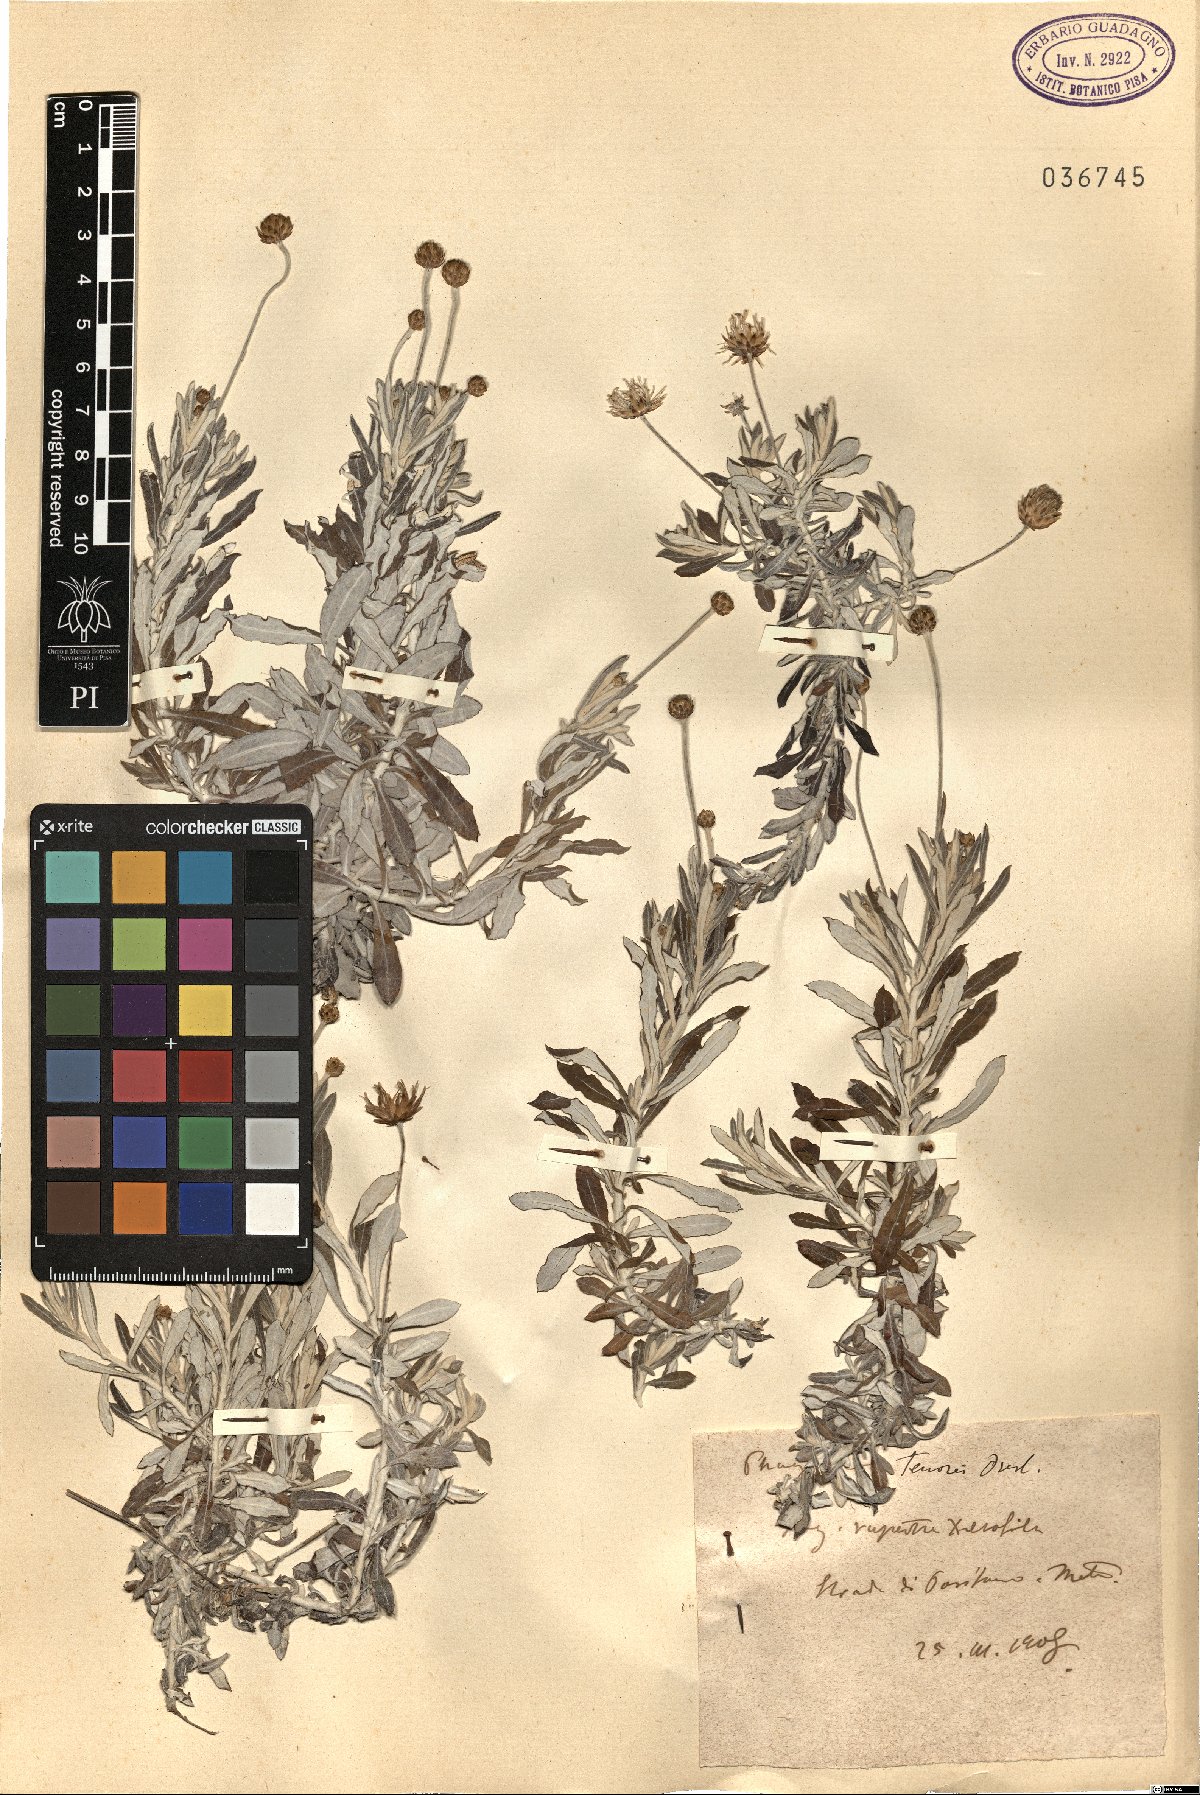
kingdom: Plantae
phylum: Tracheophyta
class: Magnoliopsida
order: Asterales
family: Asteraceae
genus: Phagnalon
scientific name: Phagnalon graecum
